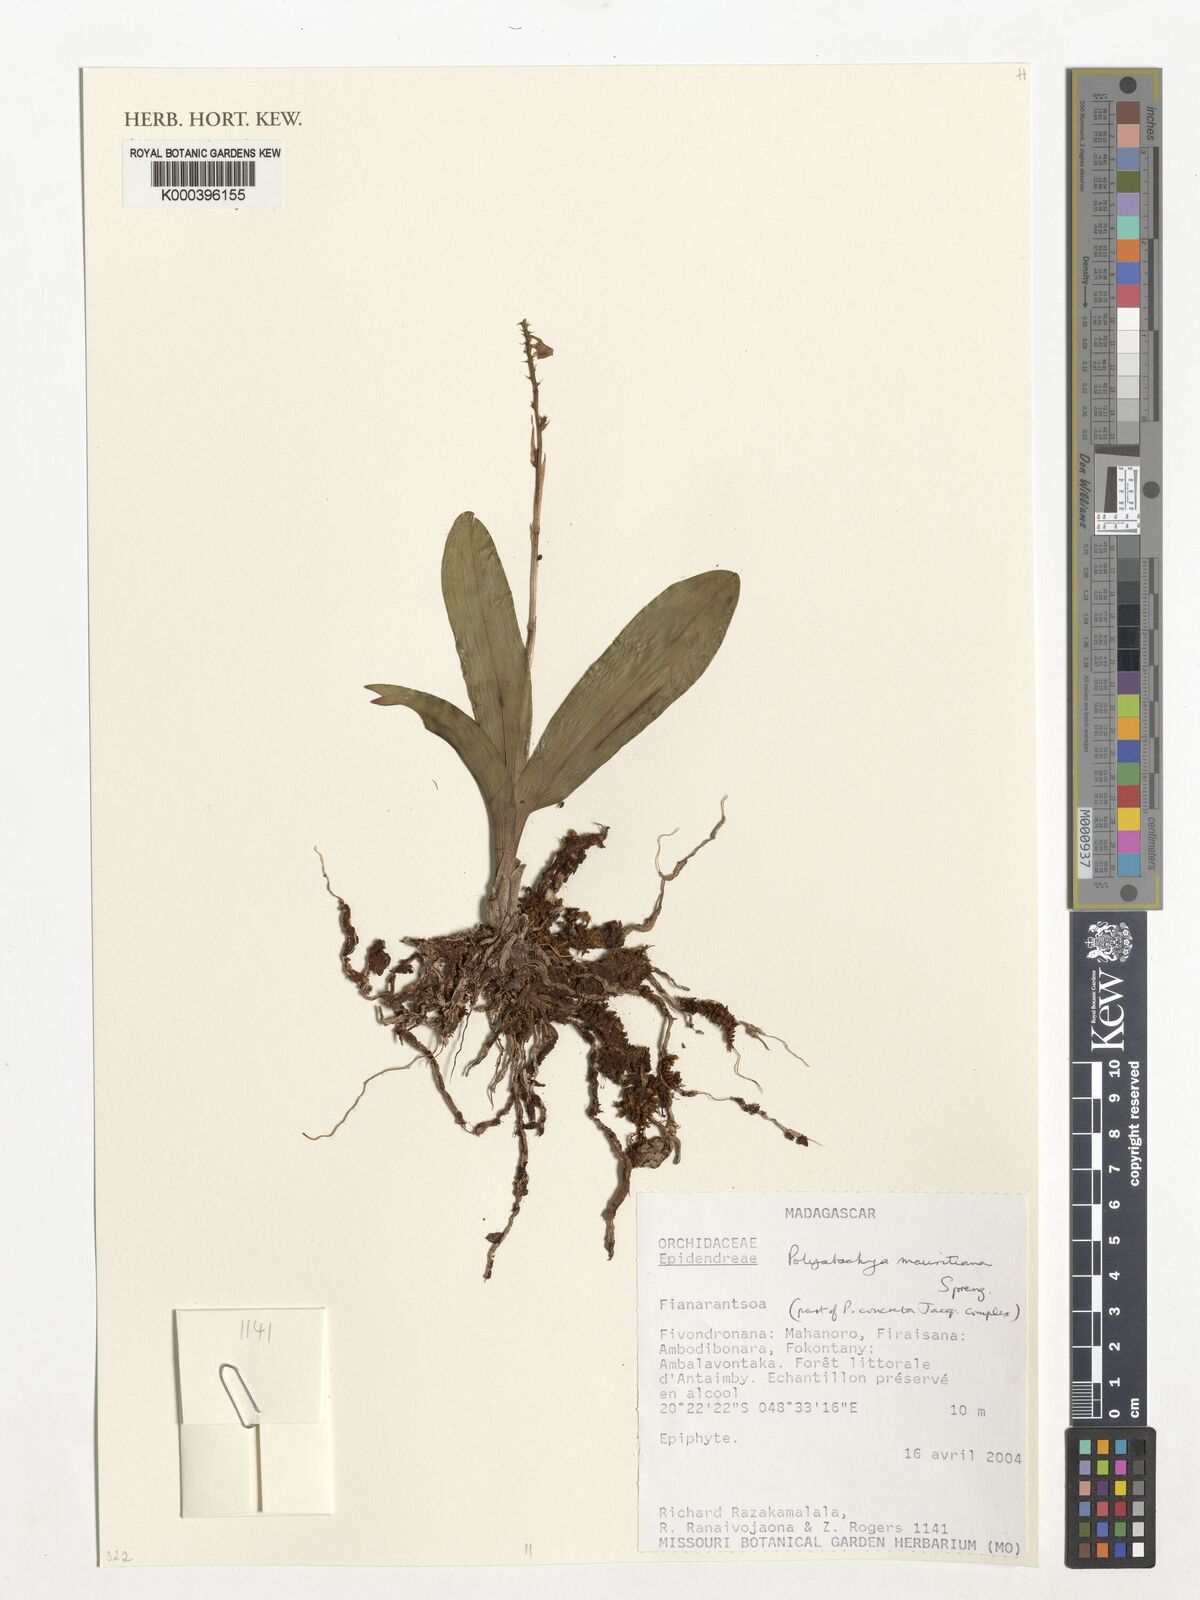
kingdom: Plantae
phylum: Tracheophyta
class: Liliopsida
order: Asparagales
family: Orchidaceae
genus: Polystachya
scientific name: Polystachya concreta
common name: Greater yellowspike orchid
